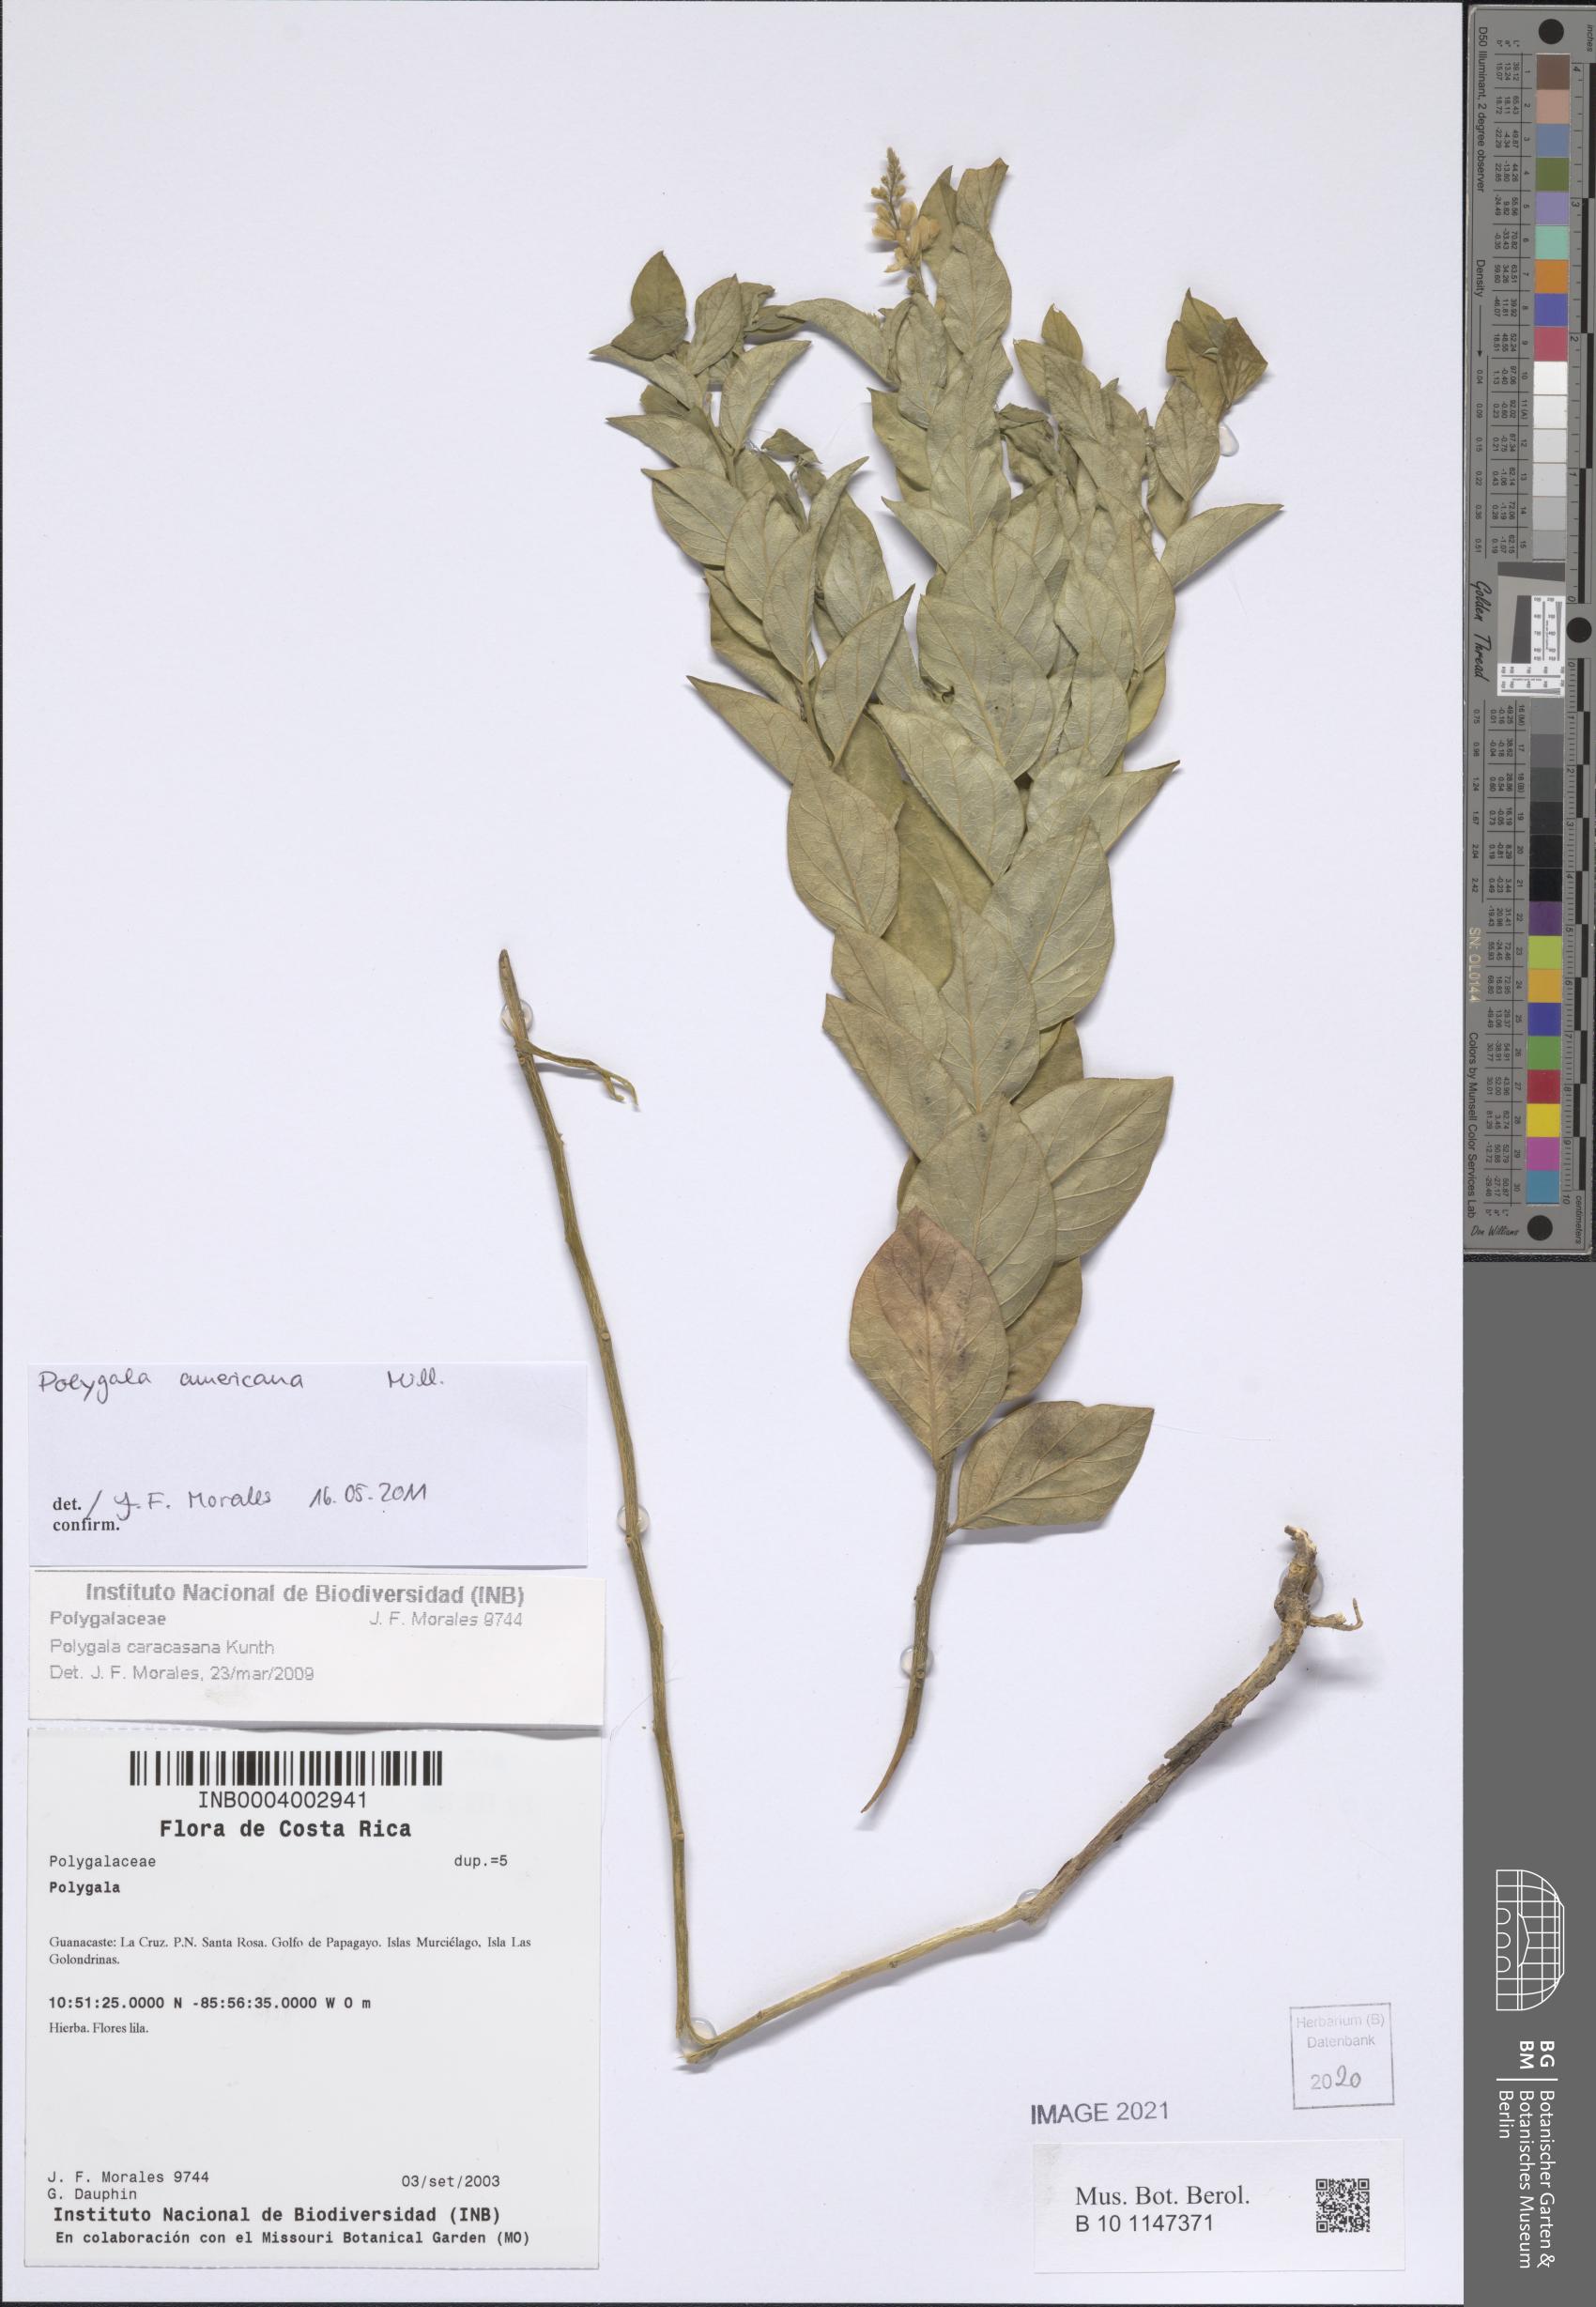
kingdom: Plantae
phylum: Tracheophyta
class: Magnoliopsida
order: Fabales
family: Polygalaceae
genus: Hebecarpa
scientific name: Hebecarpa americana
